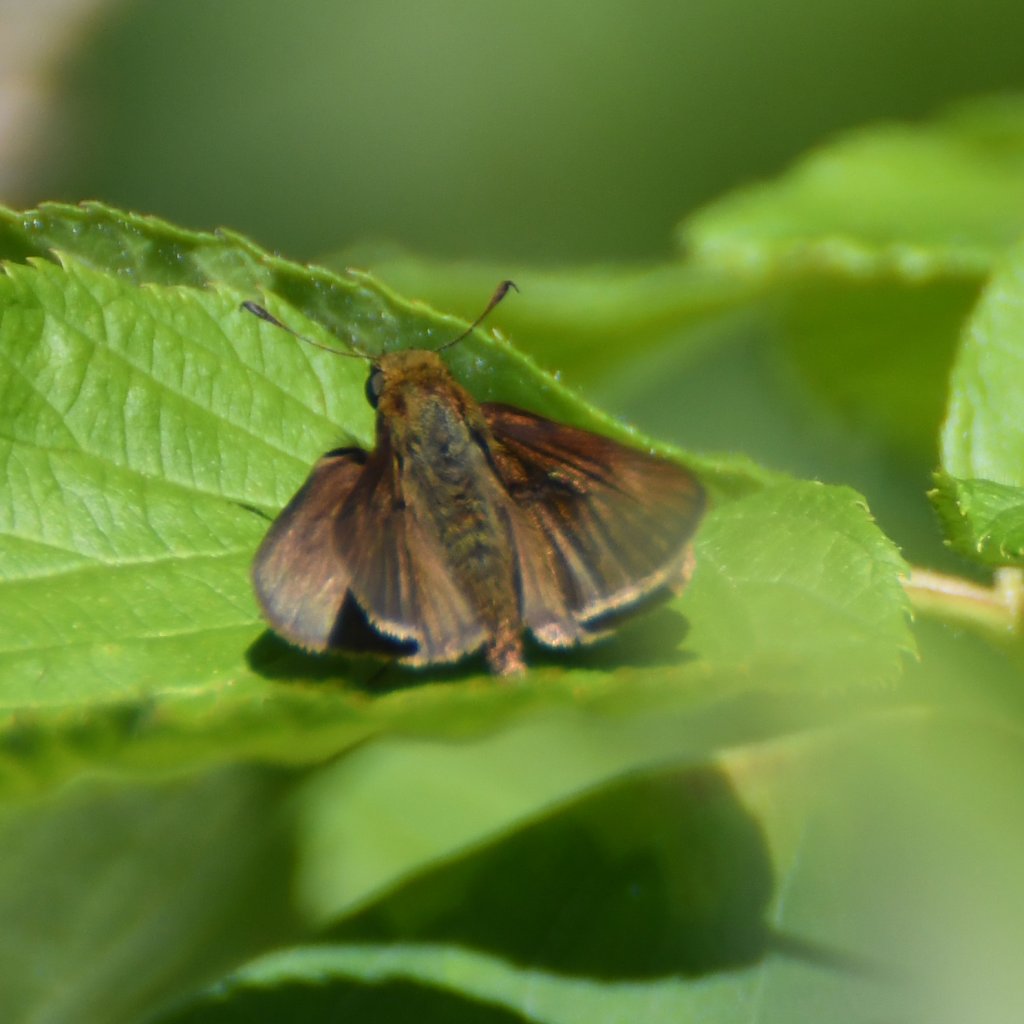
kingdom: Animalia
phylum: Arthropoda
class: Insecta
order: Lepidoptera
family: Hesperiidae
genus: Euphyes
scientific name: Euphyes vestris
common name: Dun Skipper
